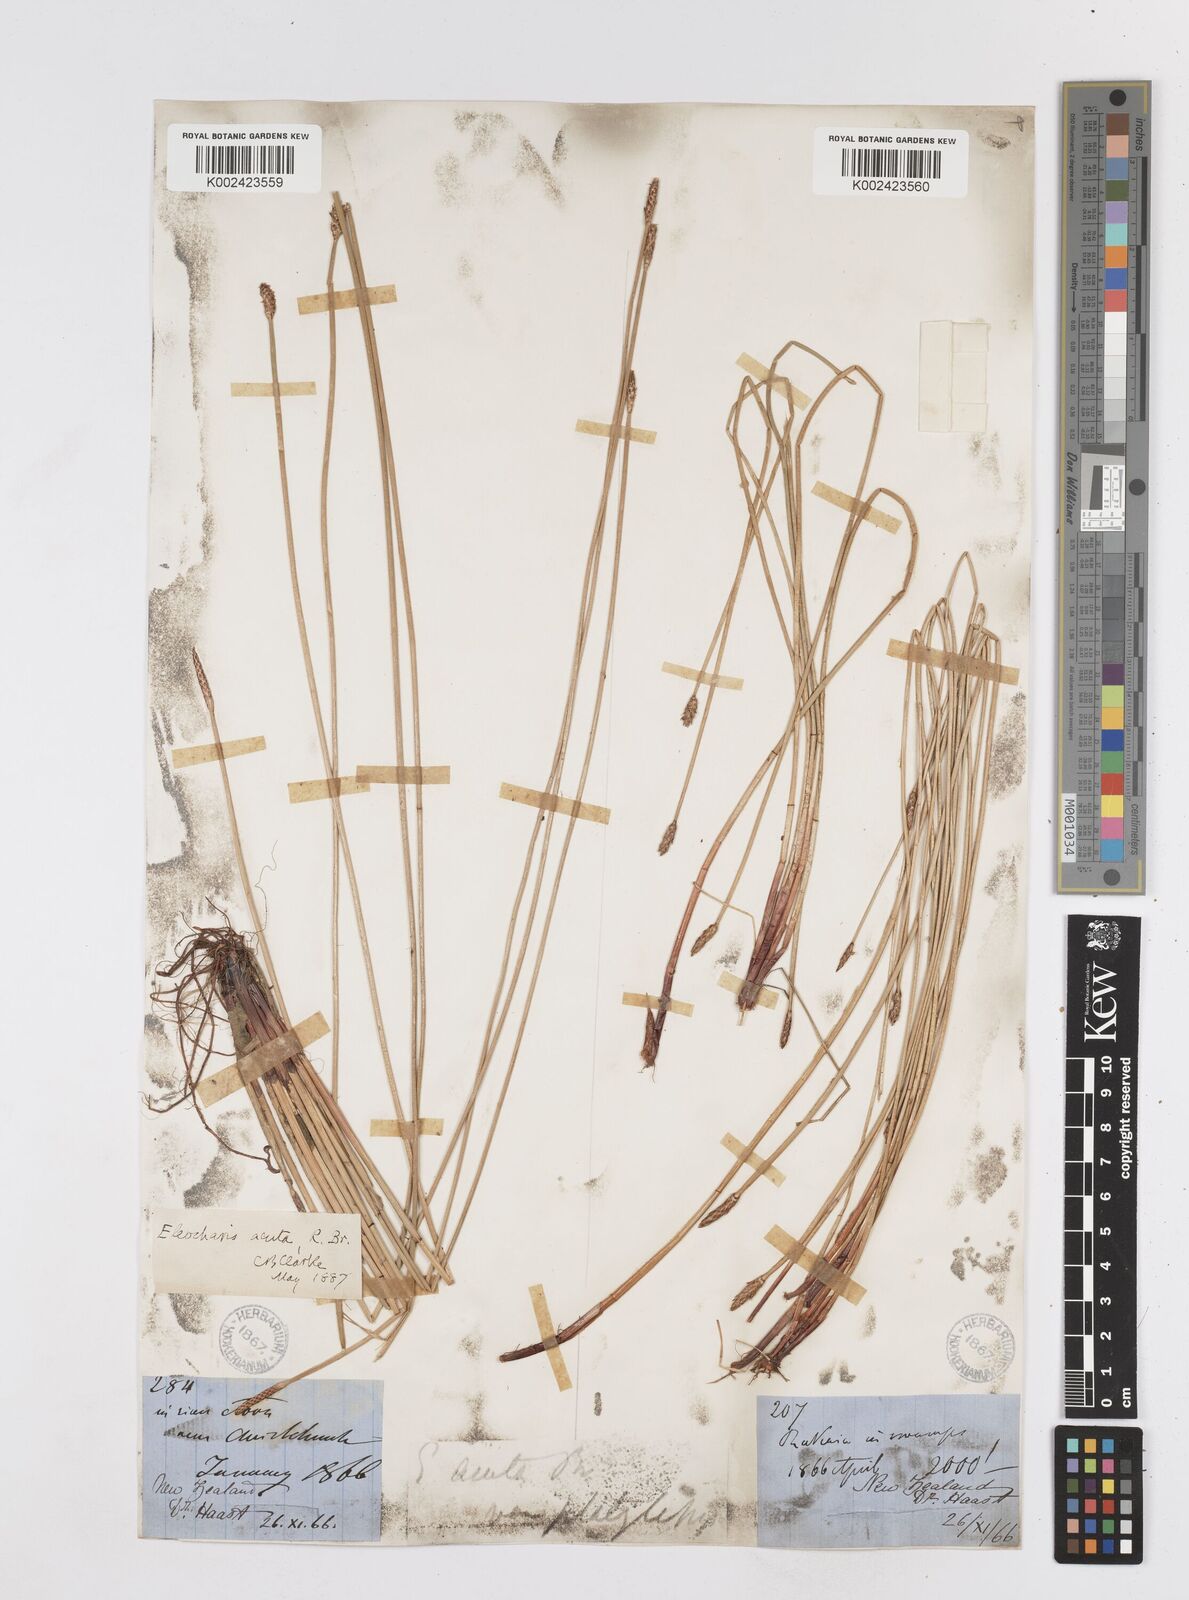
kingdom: Plantae
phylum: Tracheophyta
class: Liliopsida
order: Poales
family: Cyperaceae
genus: Eleocharis
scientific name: Eleocharis acuta
